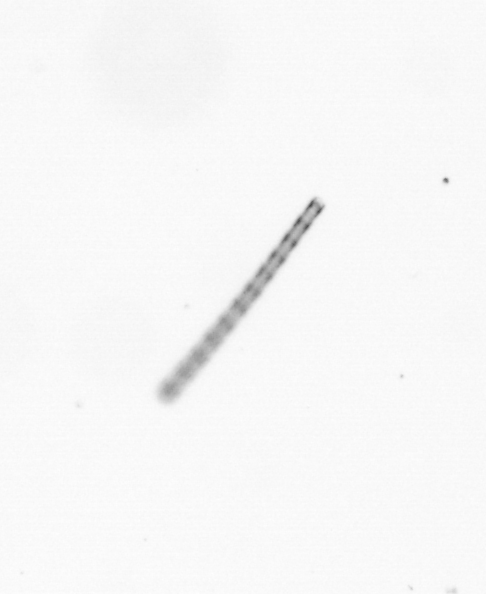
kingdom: Chromista
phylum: Ochrophyta
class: Bacillariophyceae
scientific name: Bacillariophyceae
